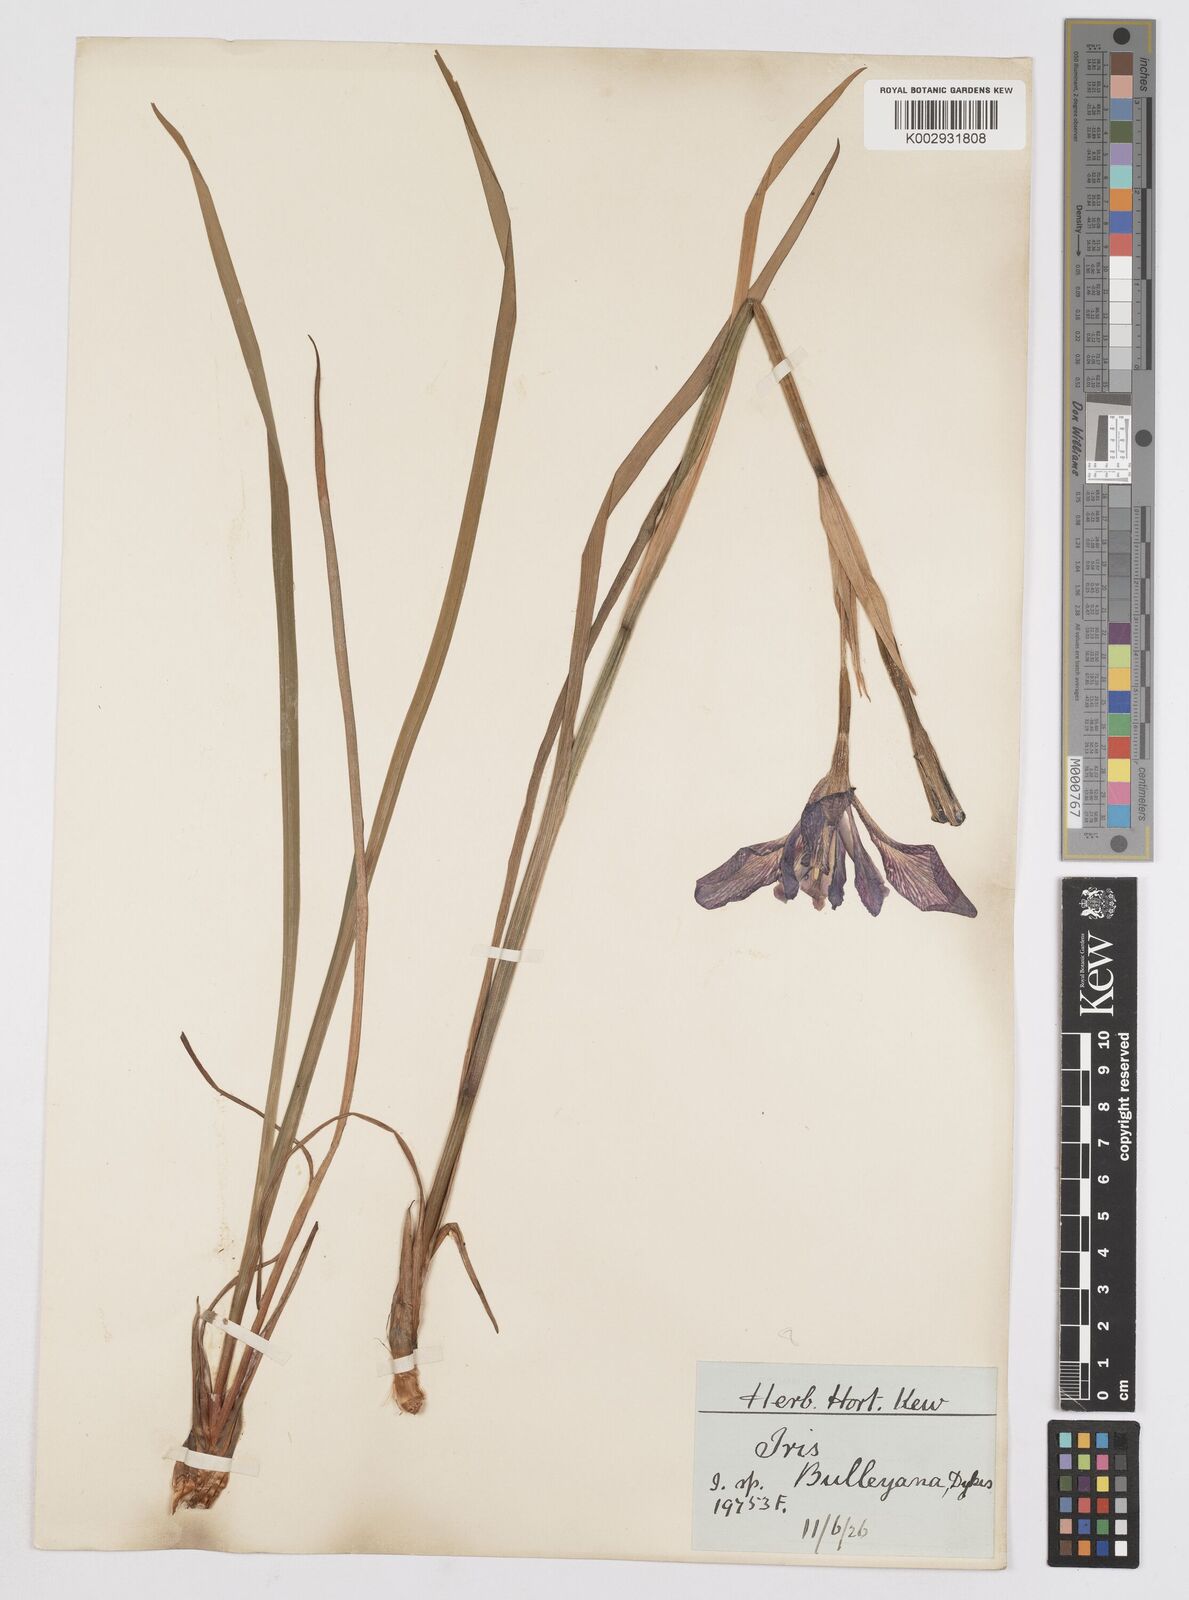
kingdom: Plantae
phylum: Tracheophyta
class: Liliopsida
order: Asparagales
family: Iridaceae
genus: Iris
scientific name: Iris clarkei
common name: Tibet iris
